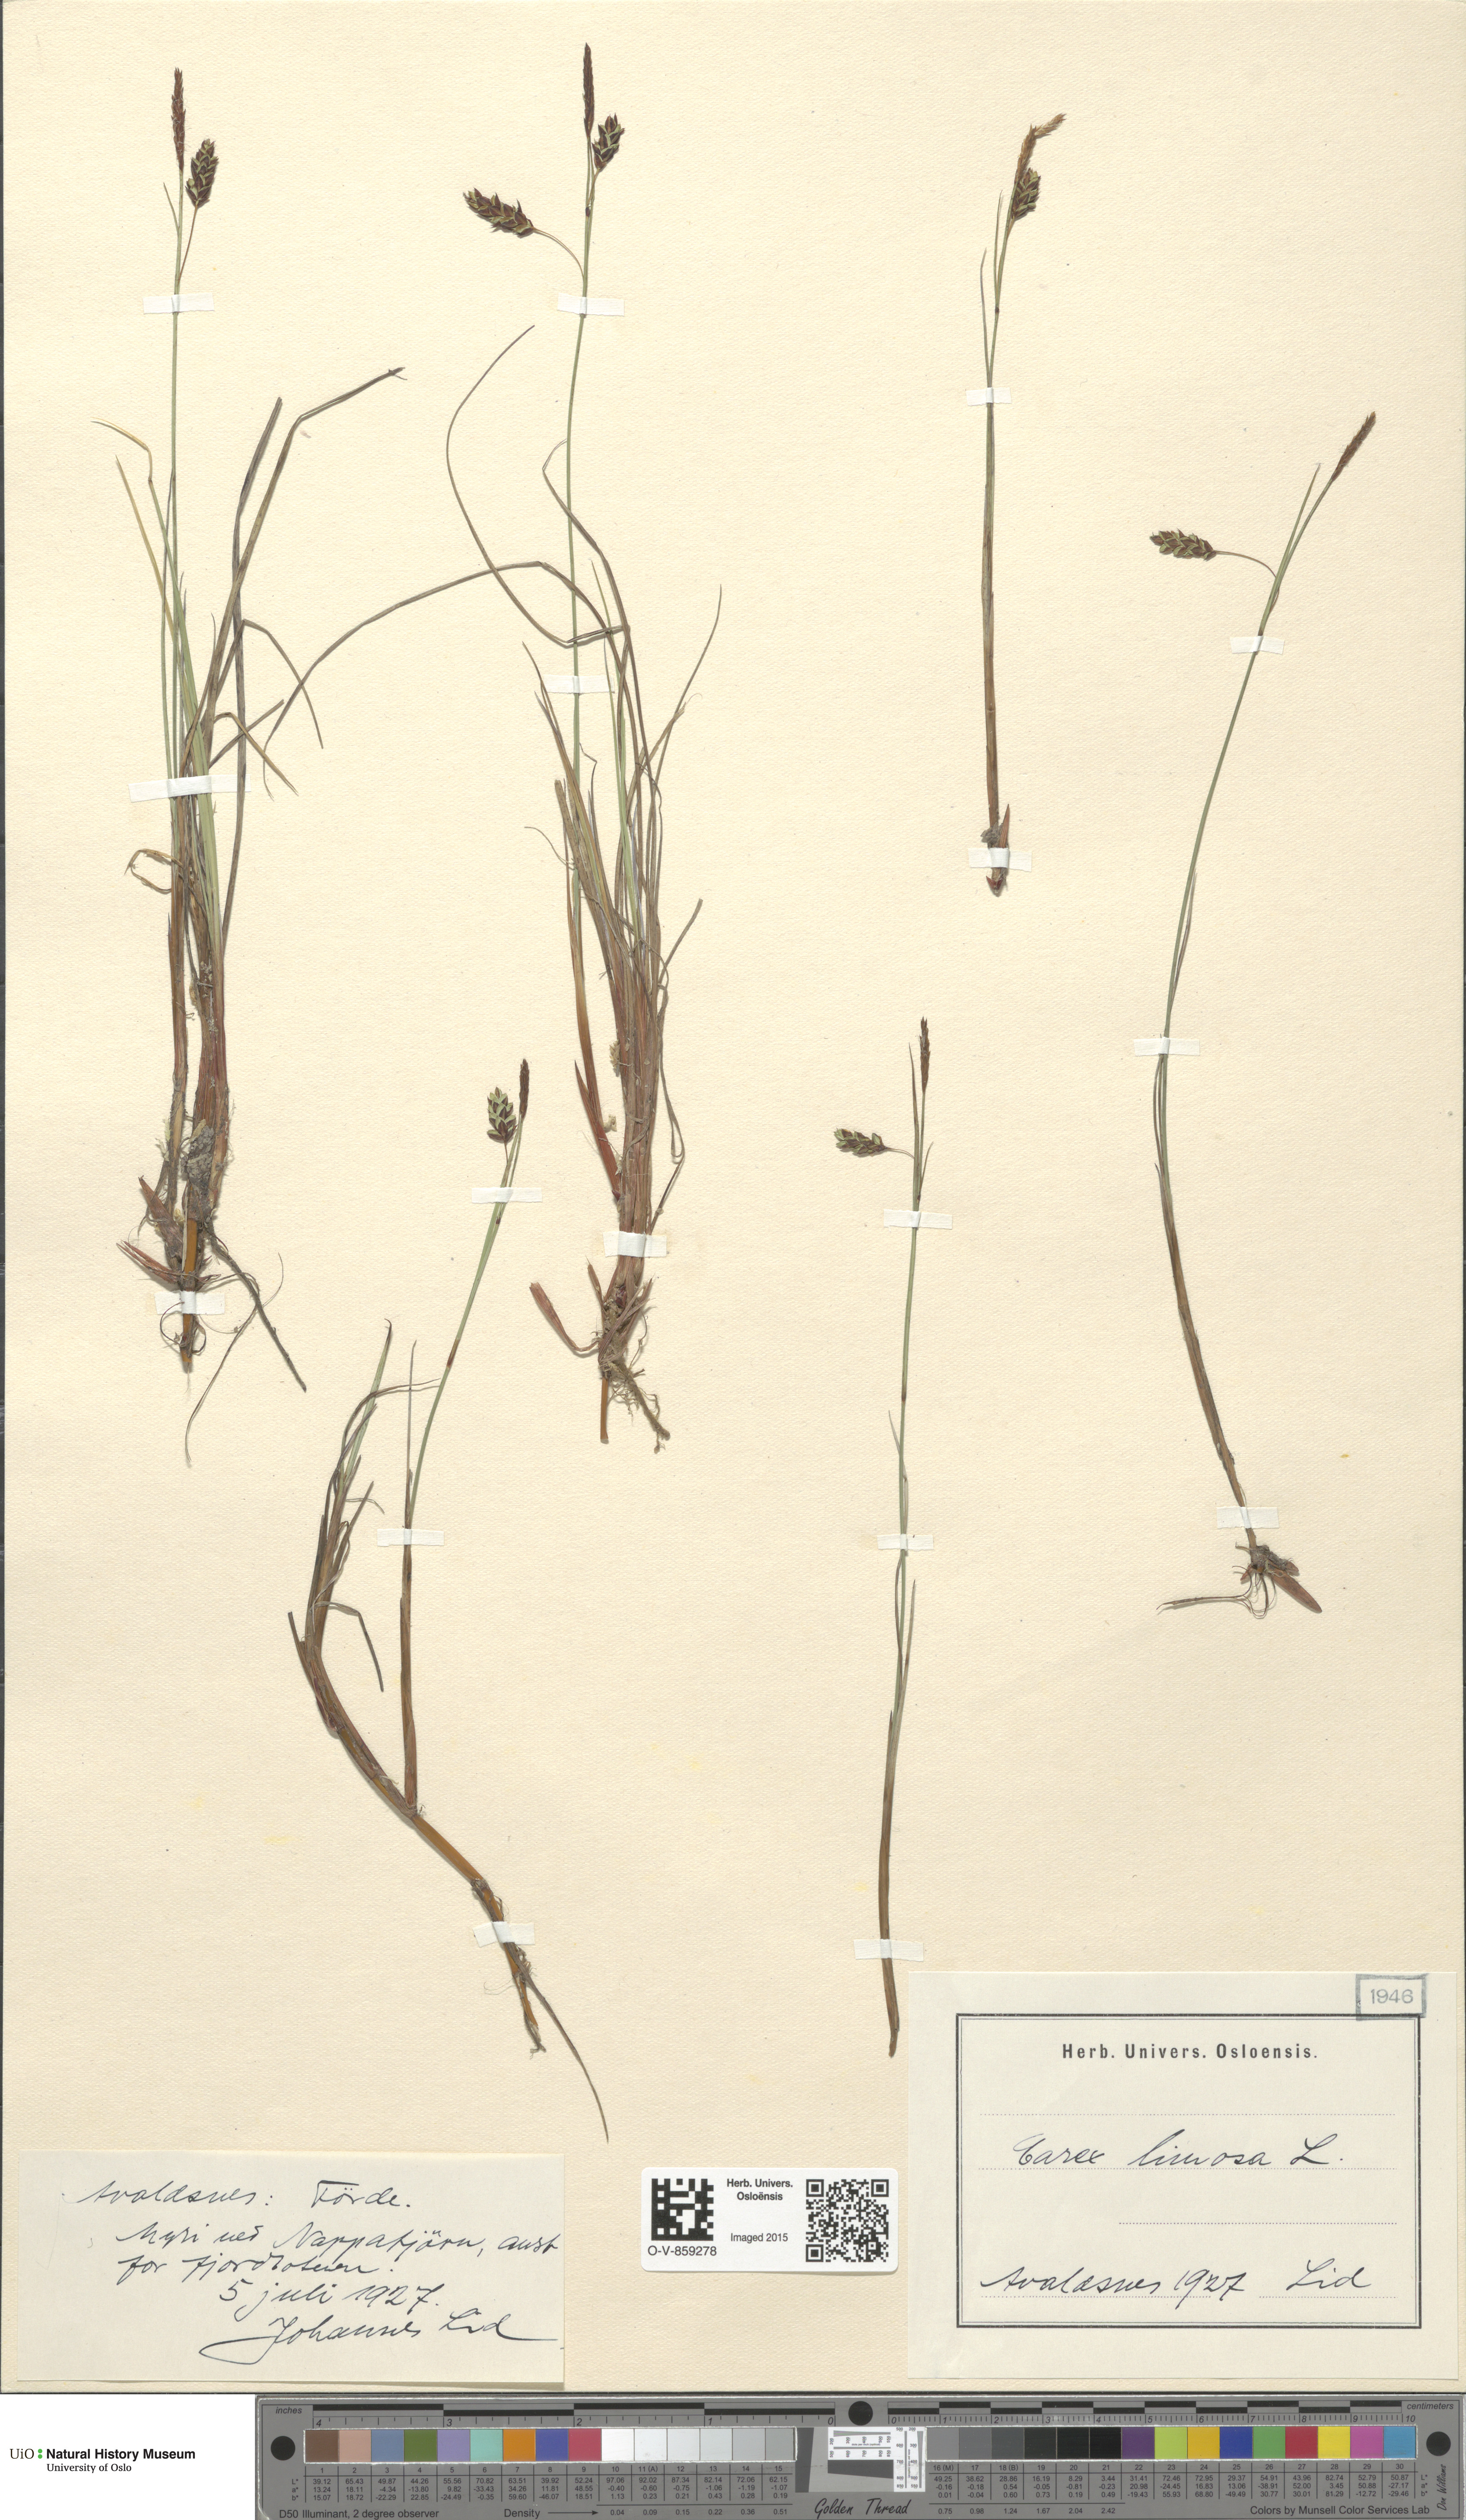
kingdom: Plantae
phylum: Tracheophyta
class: Liliopsida
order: Poales
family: Cyperaceae
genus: Carex
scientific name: Carex limosa
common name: Bog sedge
